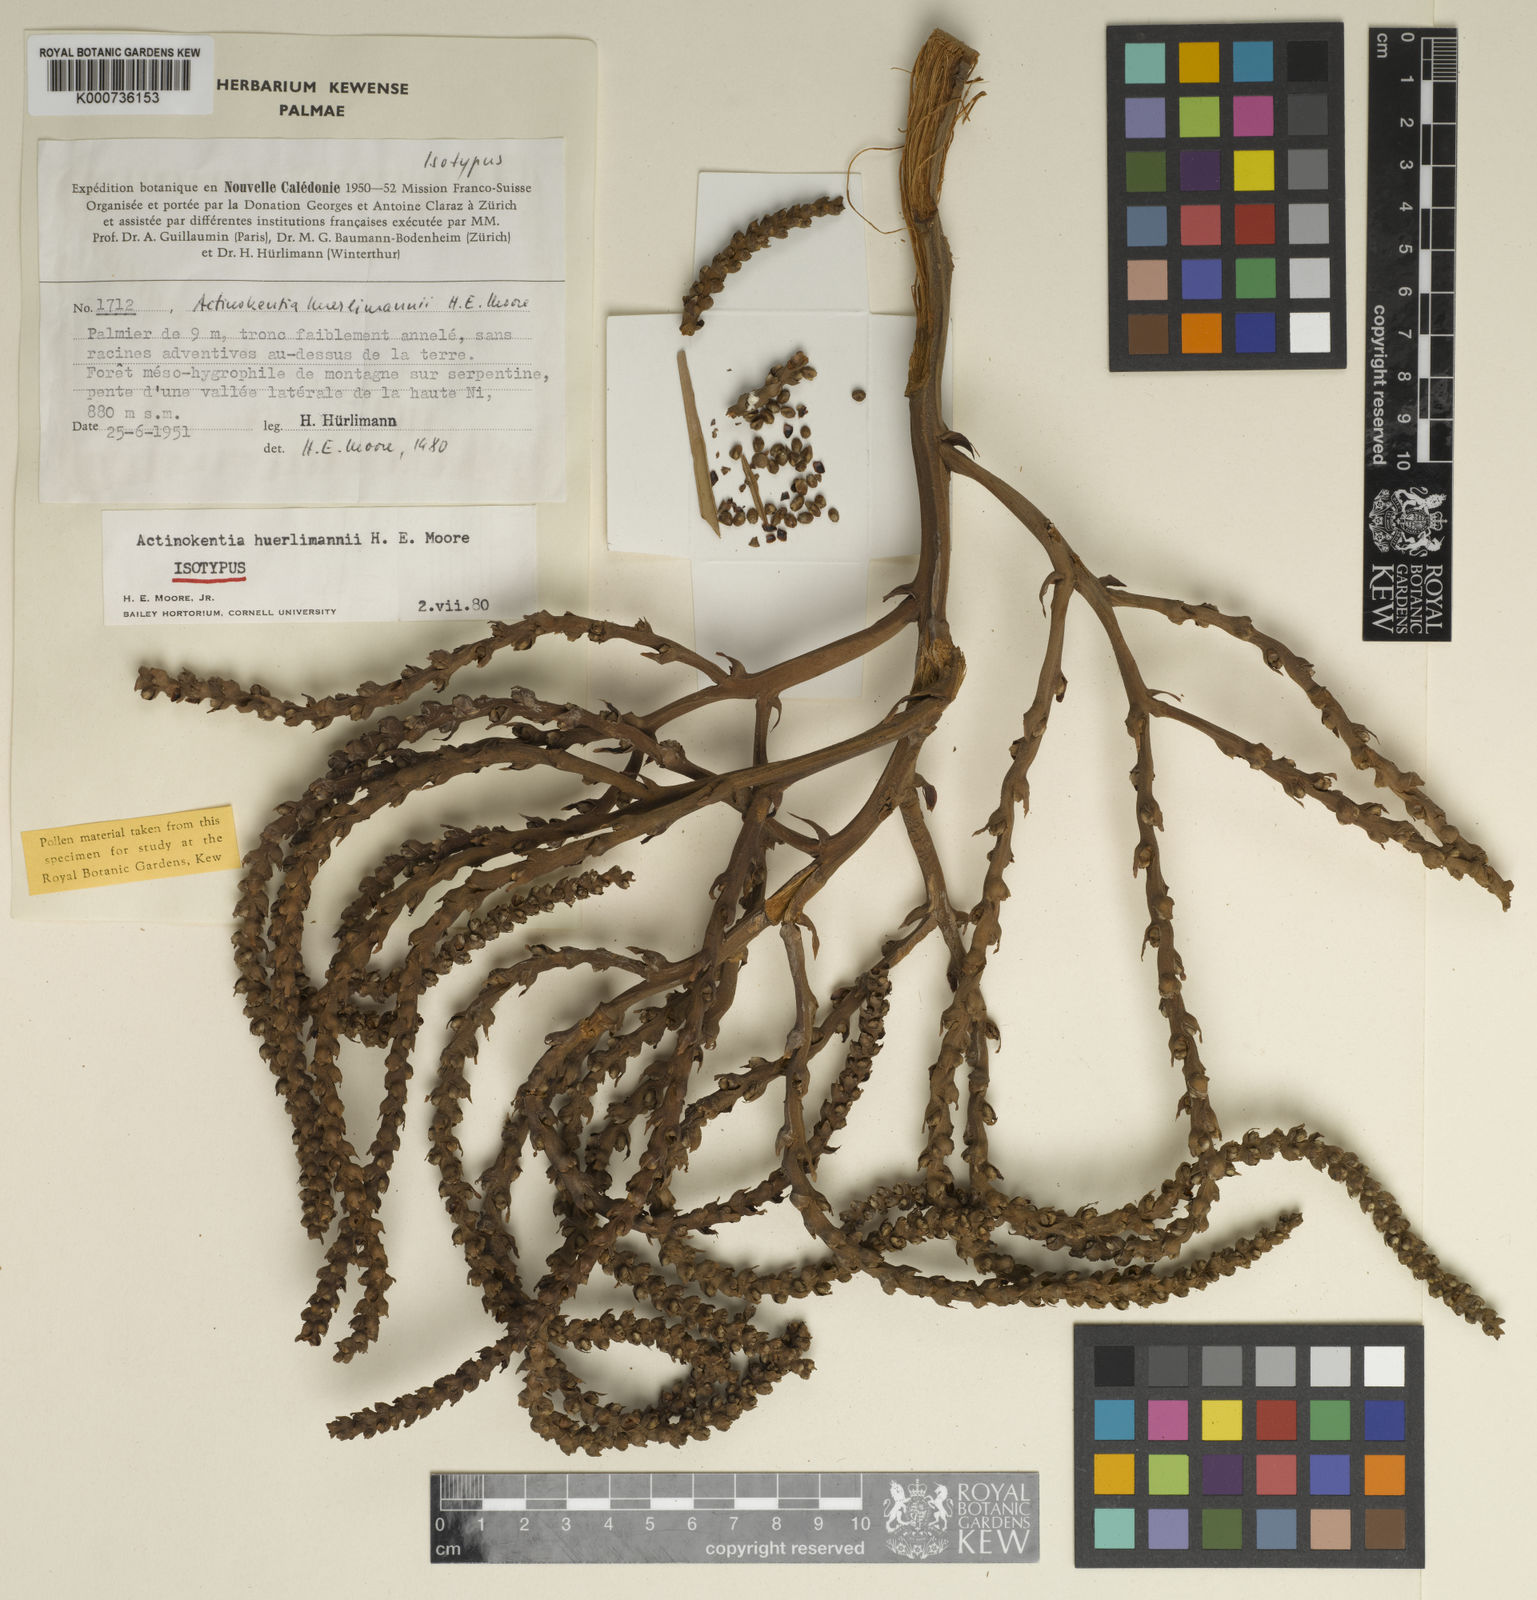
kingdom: Plantae
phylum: Tracheophyta
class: Liliopsida
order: Arecales
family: Arecaceae
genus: Chambeyronia
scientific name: Chambeyronia huerlimannii
